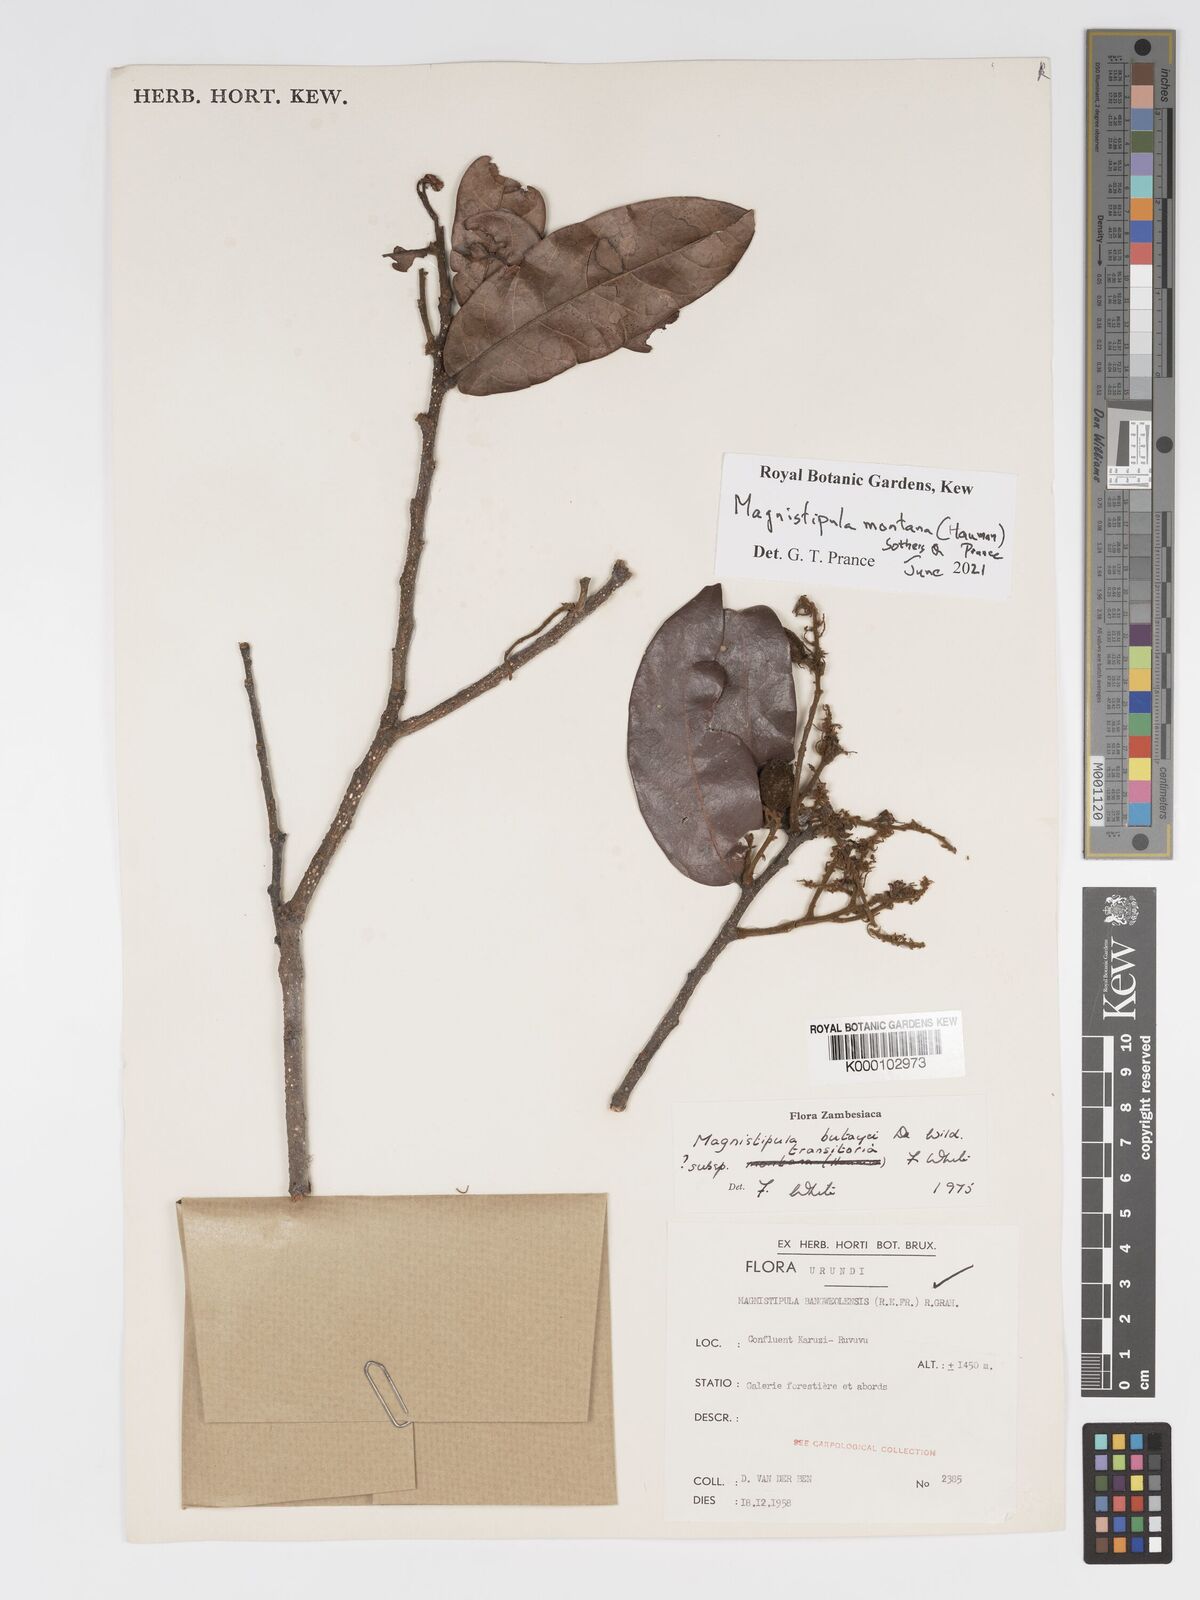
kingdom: Plantae
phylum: Tracheophyta
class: Magnoliopsida
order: Malpighiales
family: Chrysobalanaceae
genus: Magnistipula
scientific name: Magnistipula butayei
